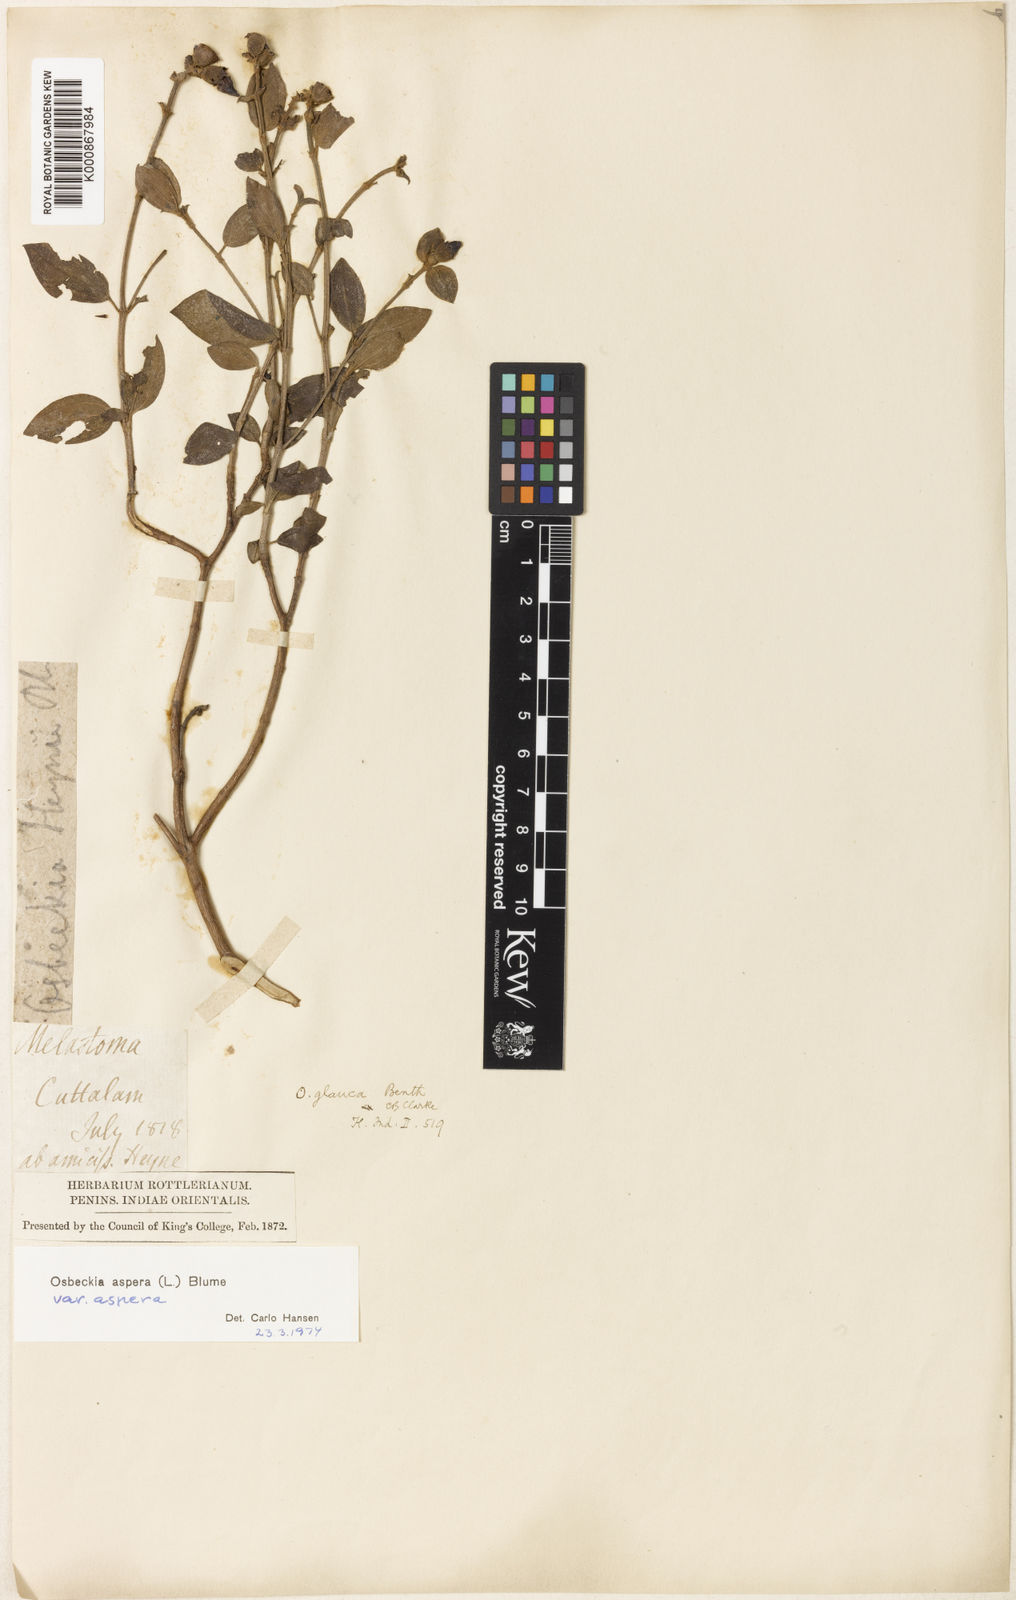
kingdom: Plantae
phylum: Tracheophyta
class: Magnoliopsida
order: Myrtales
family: Melastomataceae
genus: Osbeckia
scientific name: Osbeckia aspera
